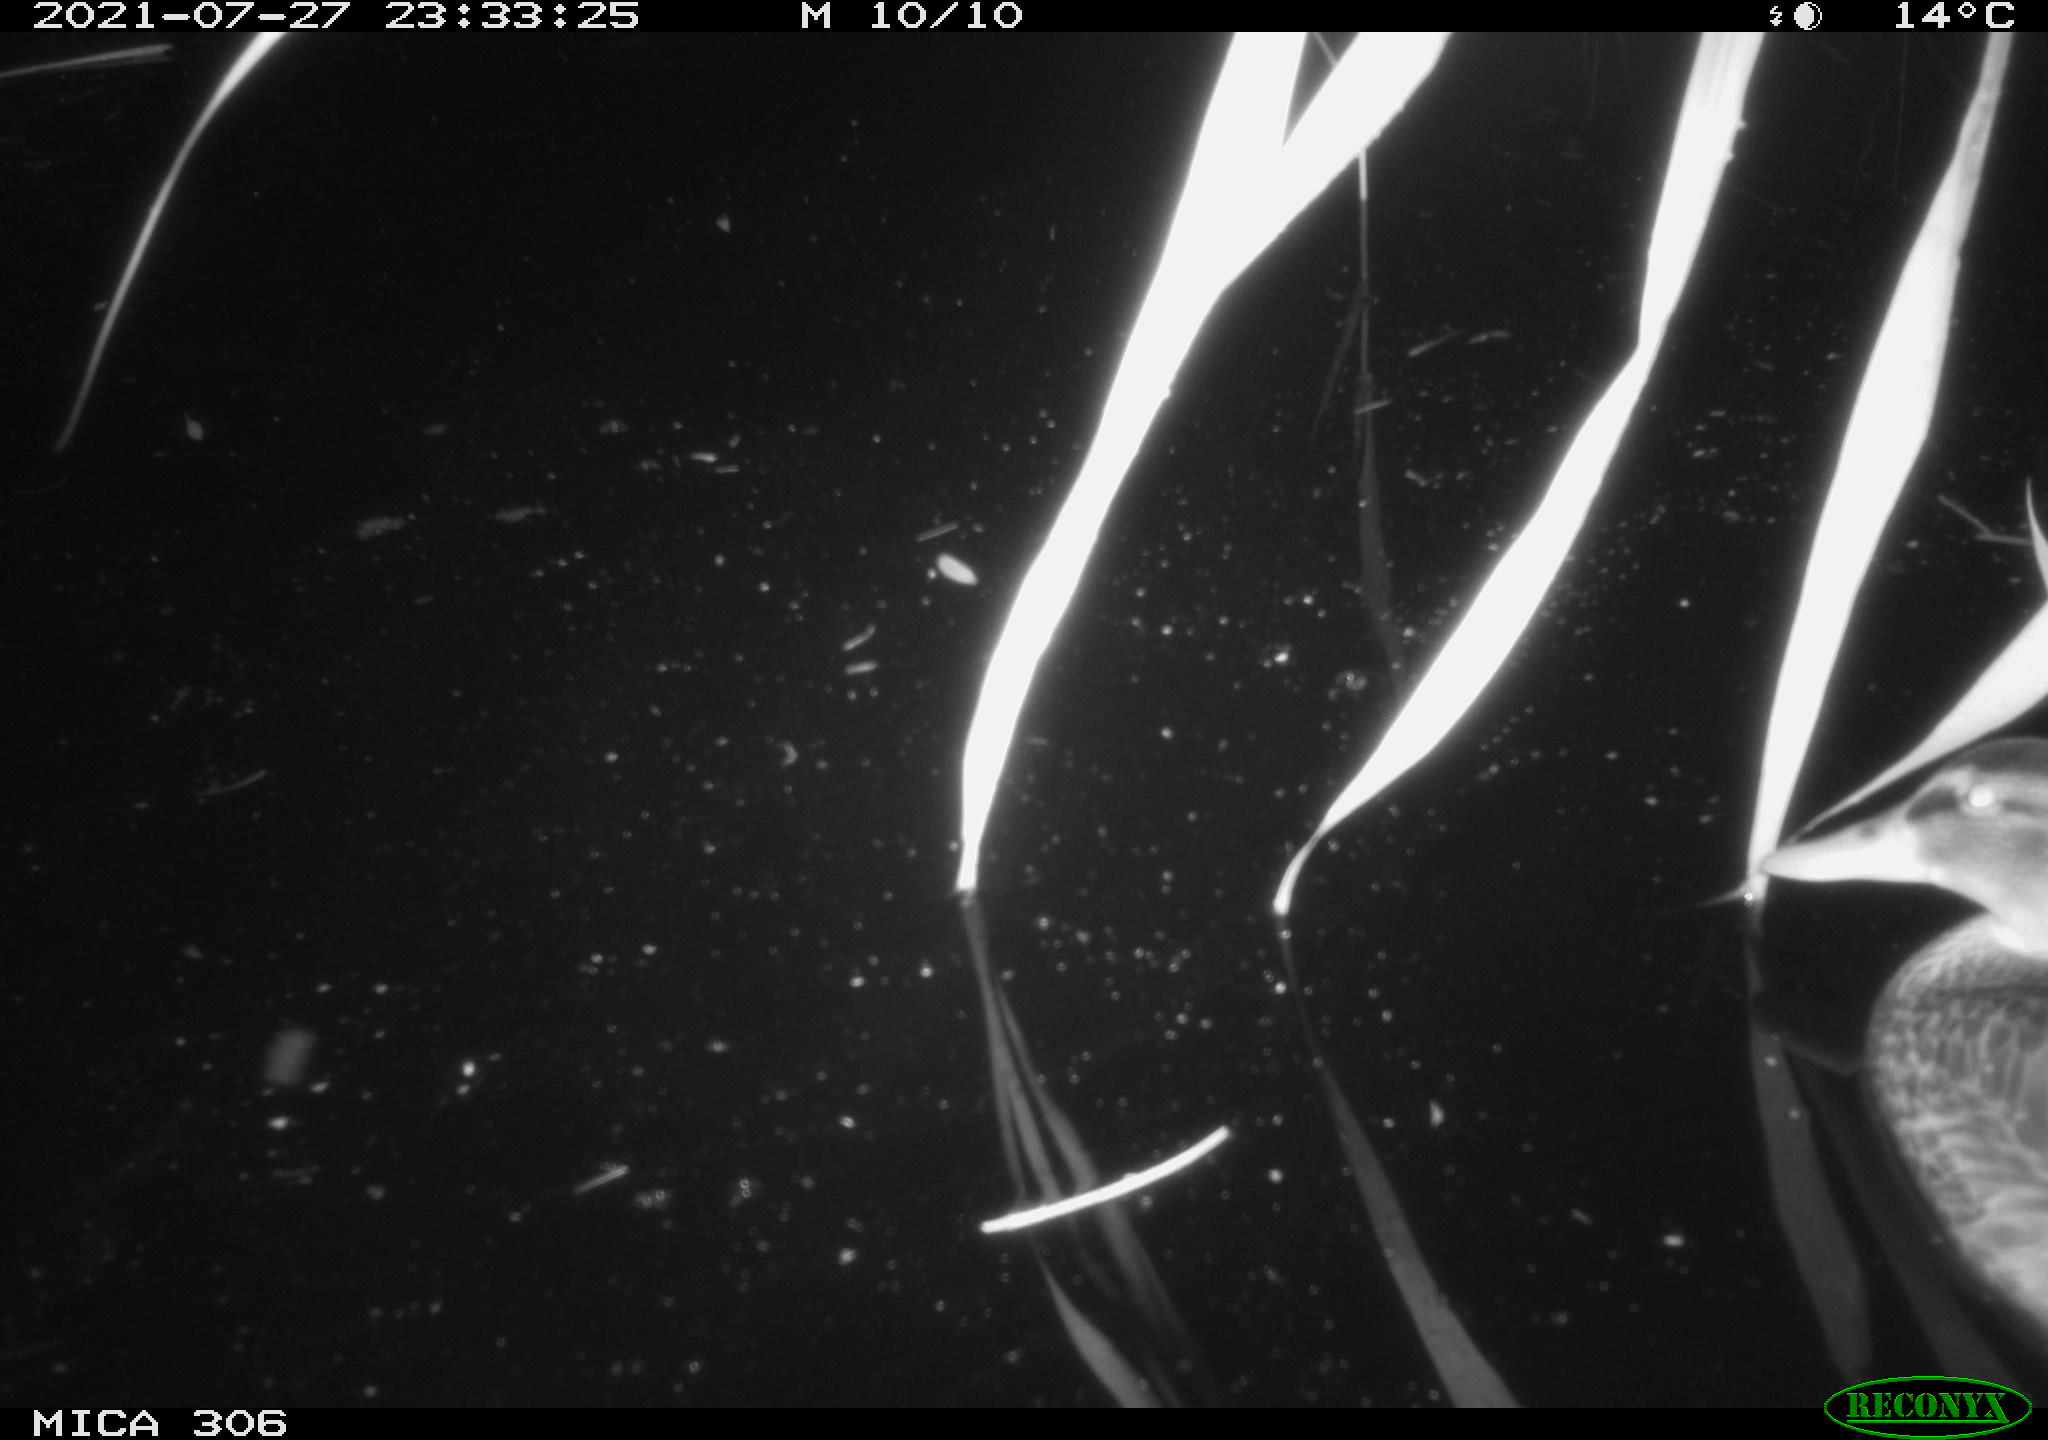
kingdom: Animalia
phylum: Chordata
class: Aves
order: Anseriformes
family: Anatidae
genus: Anas
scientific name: Anas platyrhynchos
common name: Mallard
